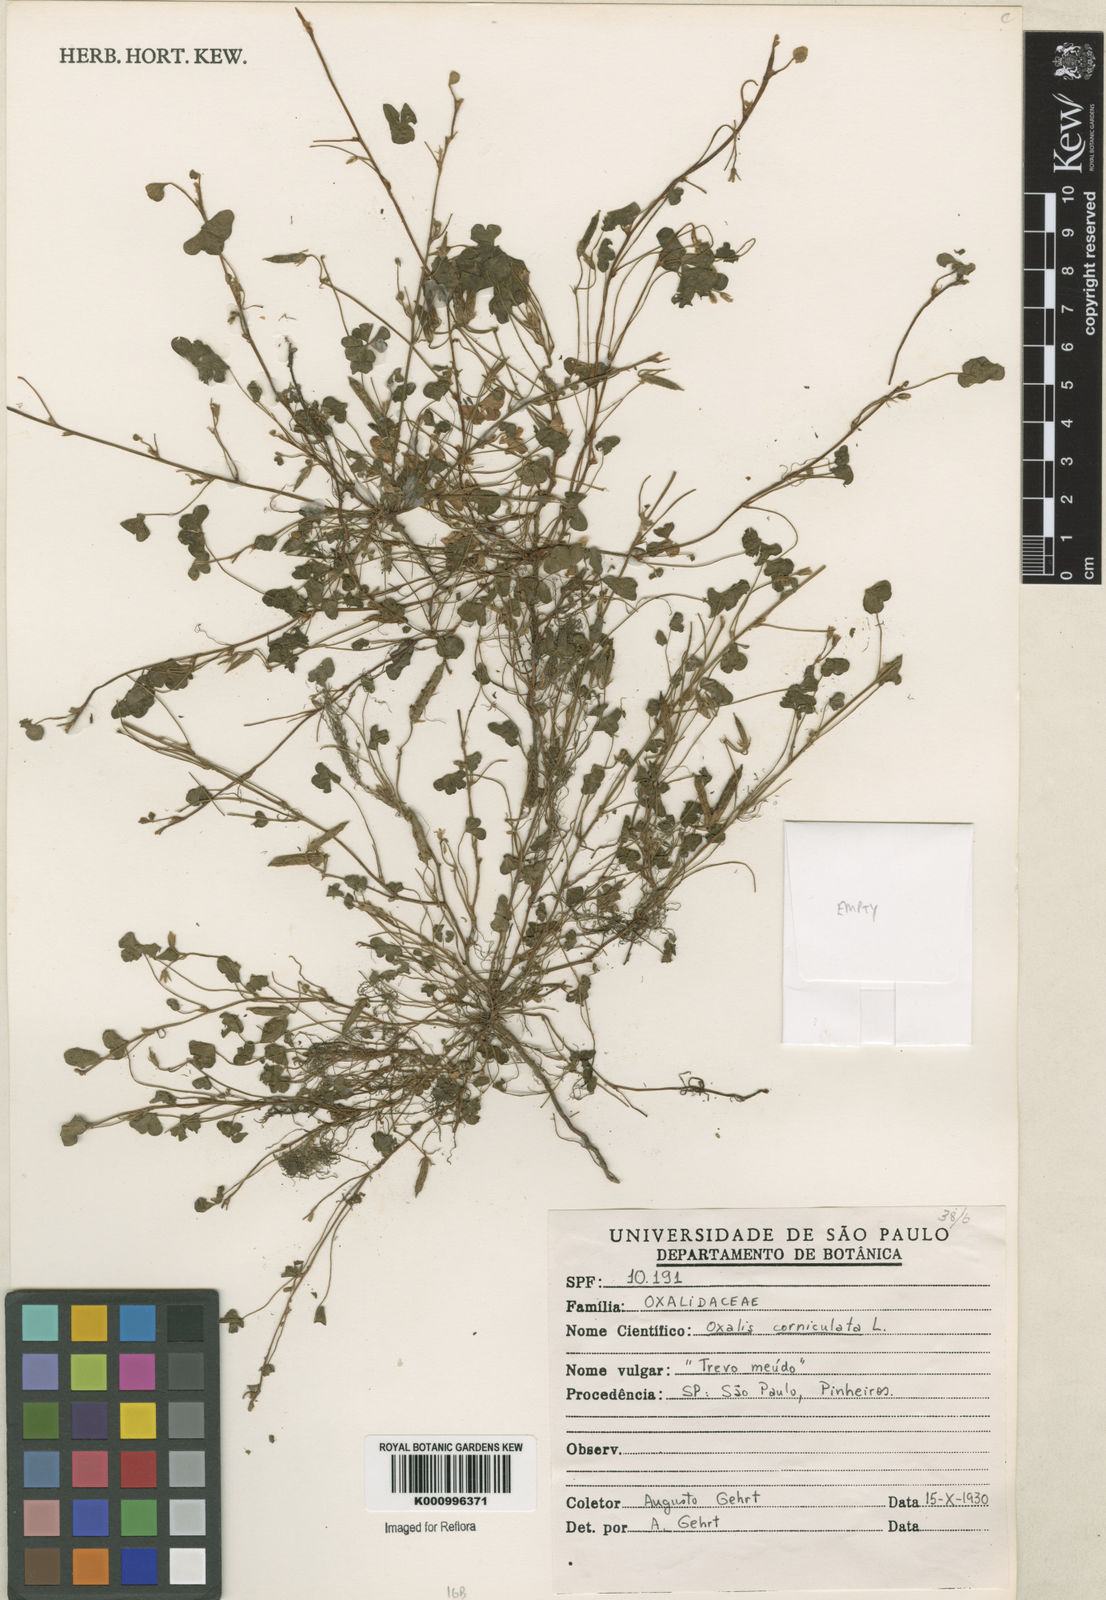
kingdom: Plantae
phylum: Tracheophyta
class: Magnoliopsida
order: Oxalidales
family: Oxalidaceae
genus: Oxalis
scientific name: Oxalis corniculata
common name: Procumbent yellow-sorrel
